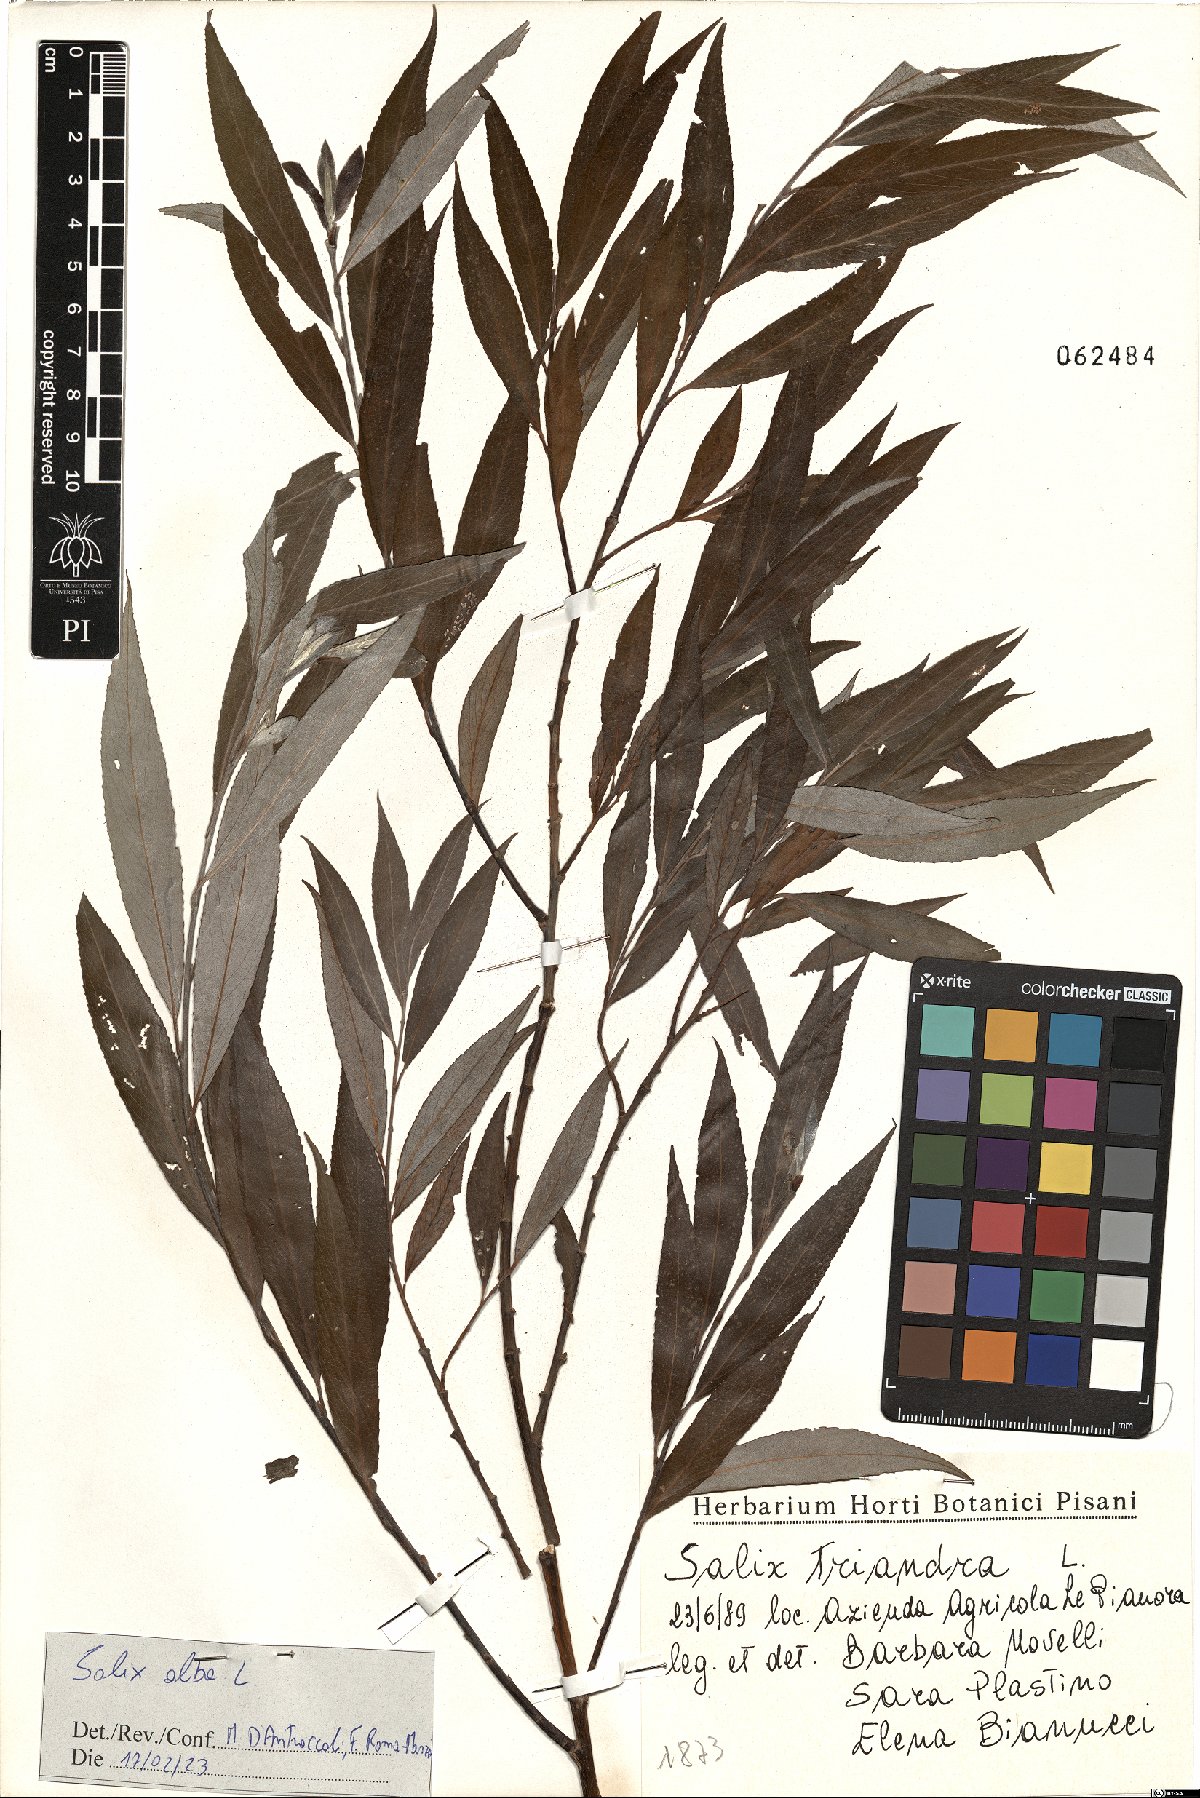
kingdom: Plantae
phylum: Tracheophyta
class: Magnoliopsida
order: Malpighiales
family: Salicaceae
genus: Salix
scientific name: Salix alba
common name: White willow
